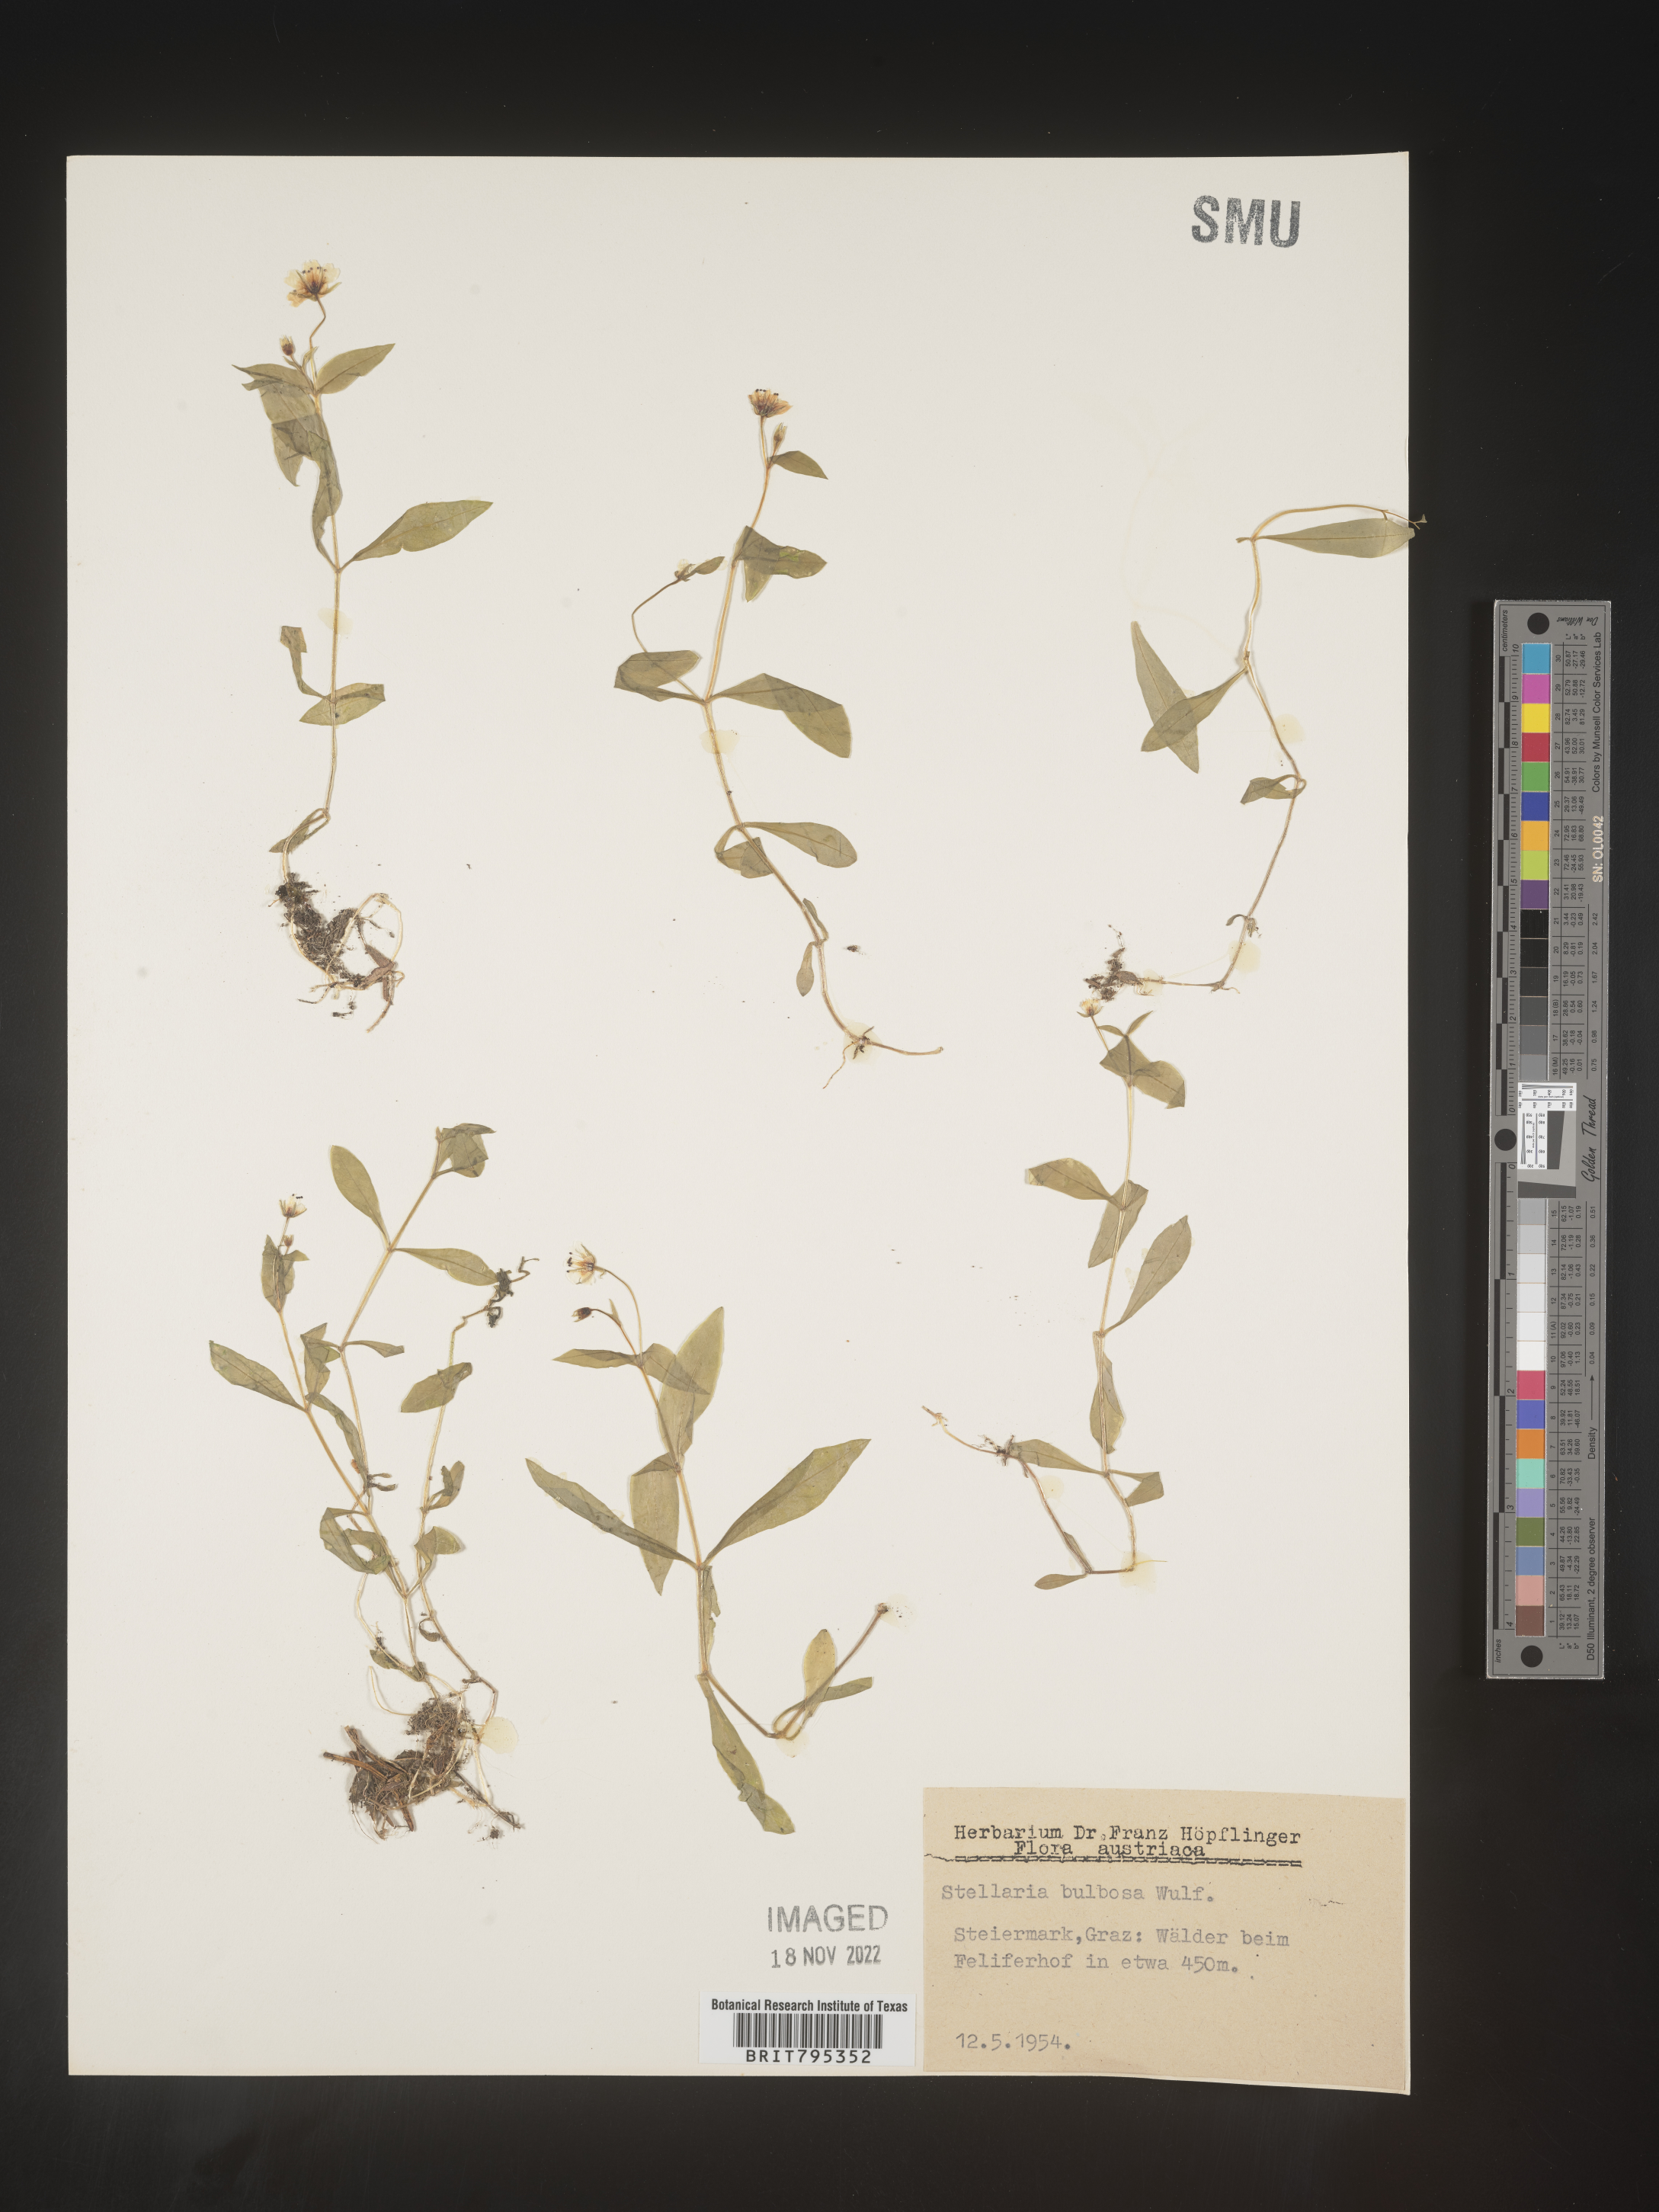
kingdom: Plantae
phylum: Tracheophyta
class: Magnoliopsida
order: Caryophyllales
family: Caryophyllaceae
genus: Stellaria
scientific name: Stellaria
